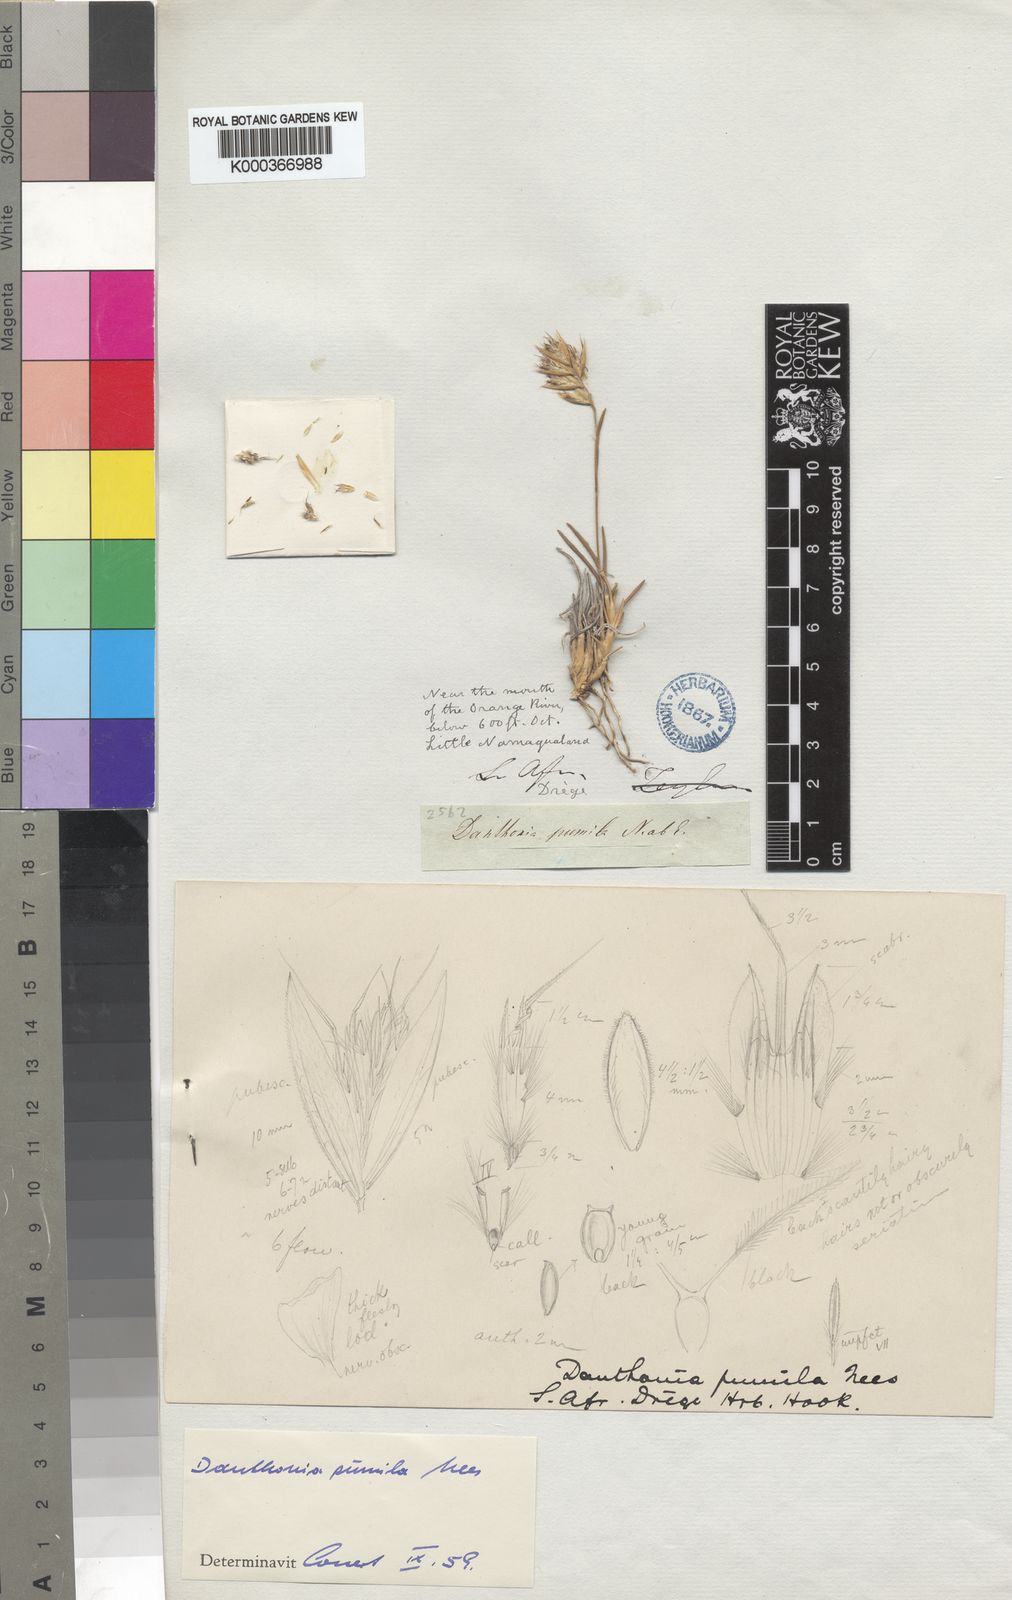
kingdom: Plantae
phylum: Tracheophyta
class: Liliopsida
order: Poales
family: Poaceae
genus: Dregeochloa
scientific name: Dregeochloa pumila
